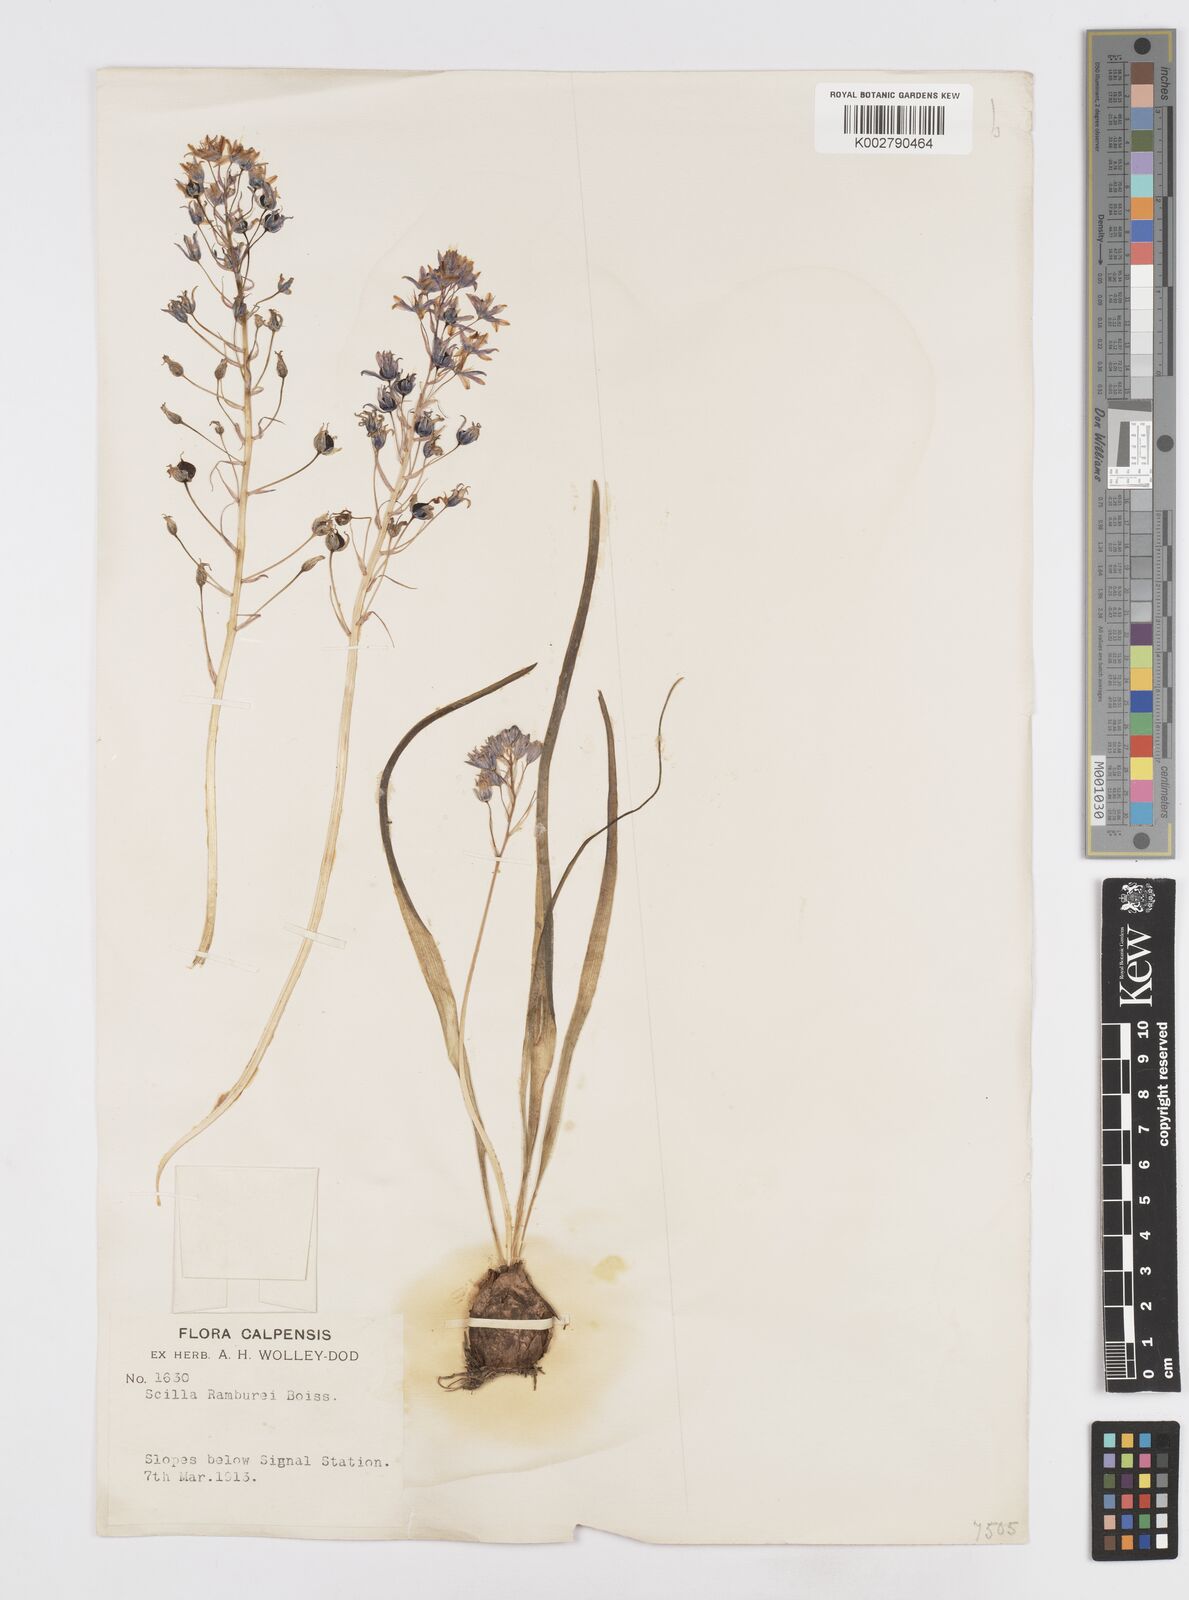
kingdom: Plantae
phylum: Tracheophyta
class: Liliopsida
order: Asparagales
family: Asparagaceae
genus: Scilla
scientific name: Scilla verna
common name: Spring squill
